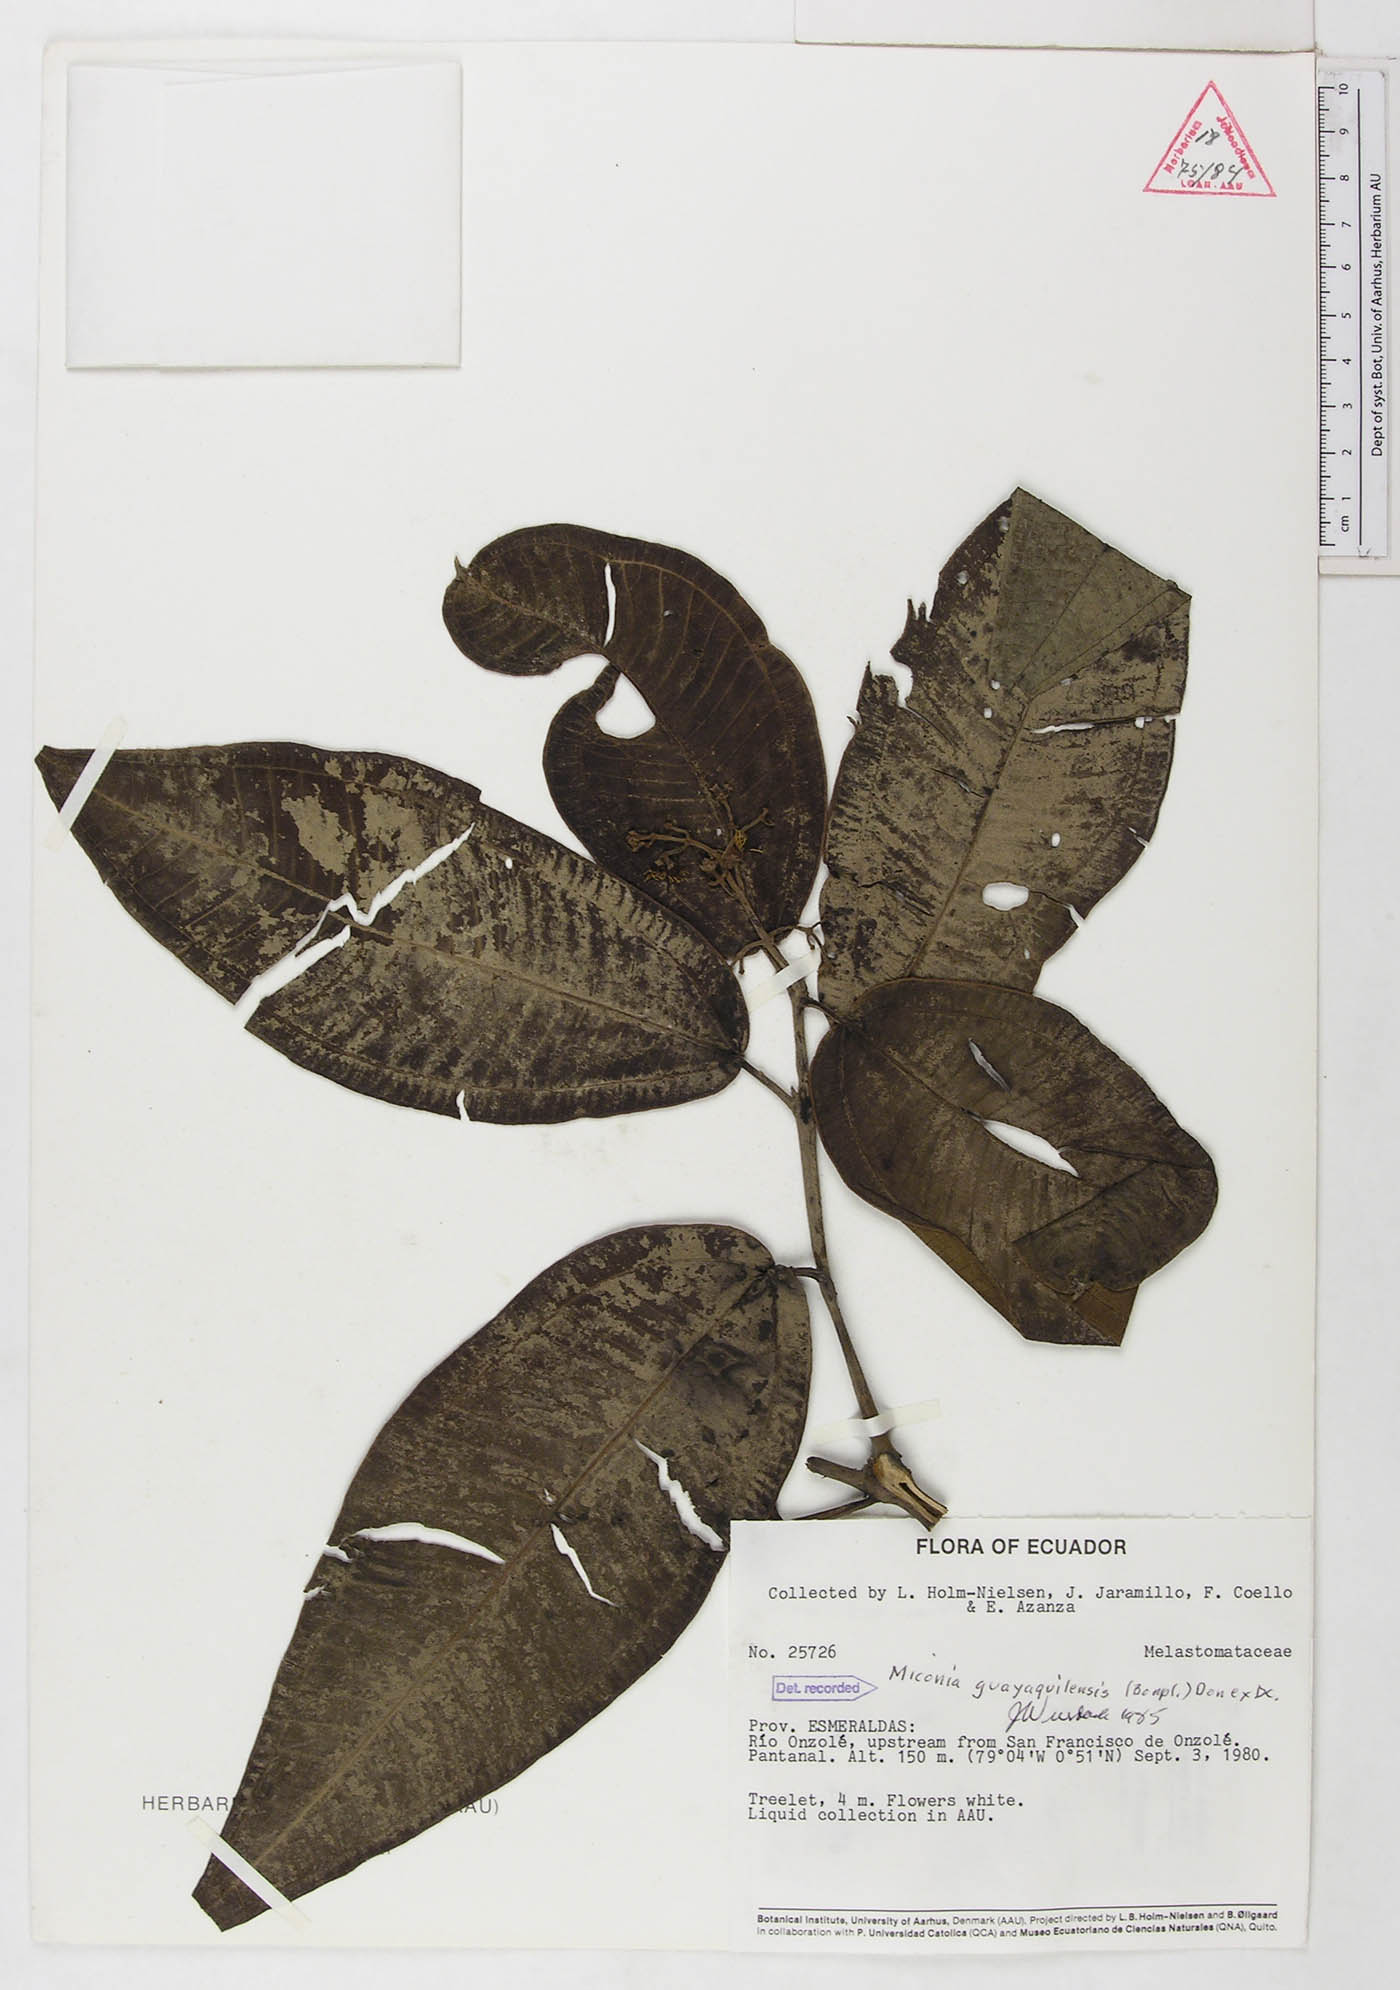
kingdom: Plantae
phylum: Tracheophyta
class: Magnoliopsida
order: Myrtales
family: Melastomataceae
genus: Miconia
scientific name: Miconia guayaquilensis
